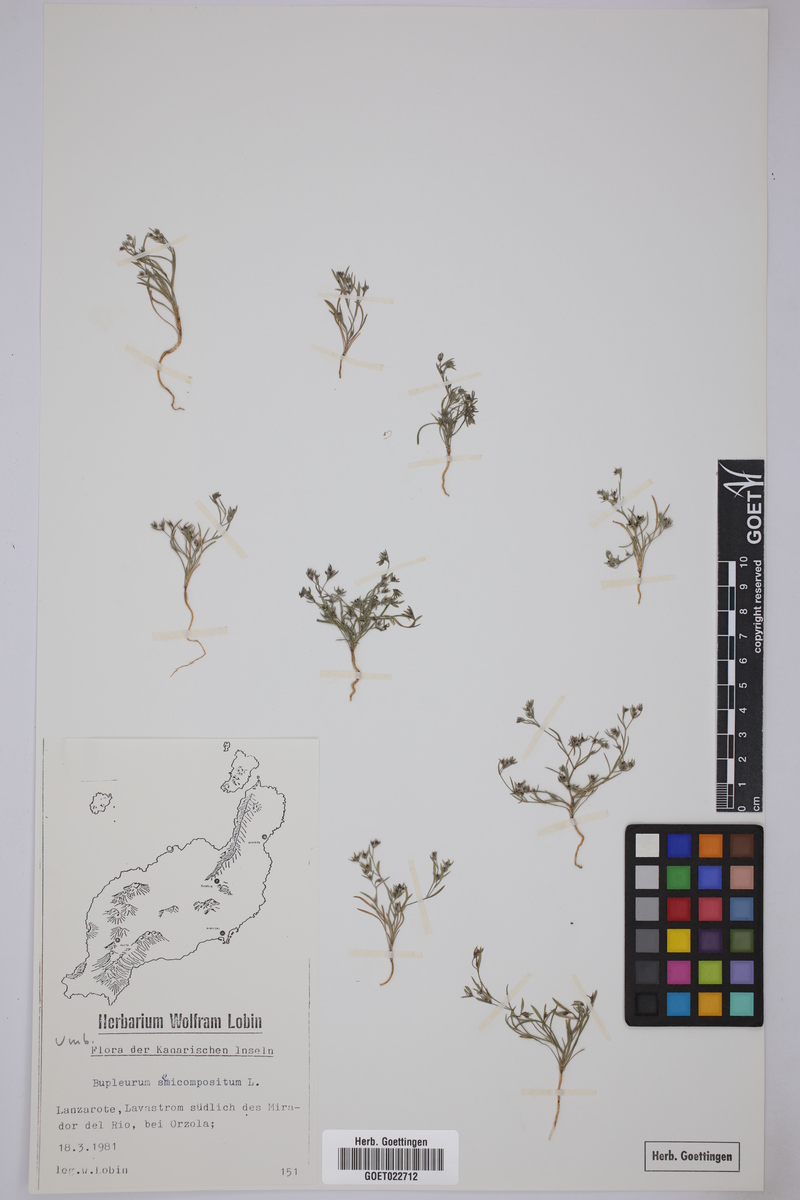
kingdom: Plantae
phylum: Tracheophyta
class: Magnoliopsida
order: Apiales
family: Apiaceae
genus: Bupleurum
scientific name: Bupleurum semicompositum
